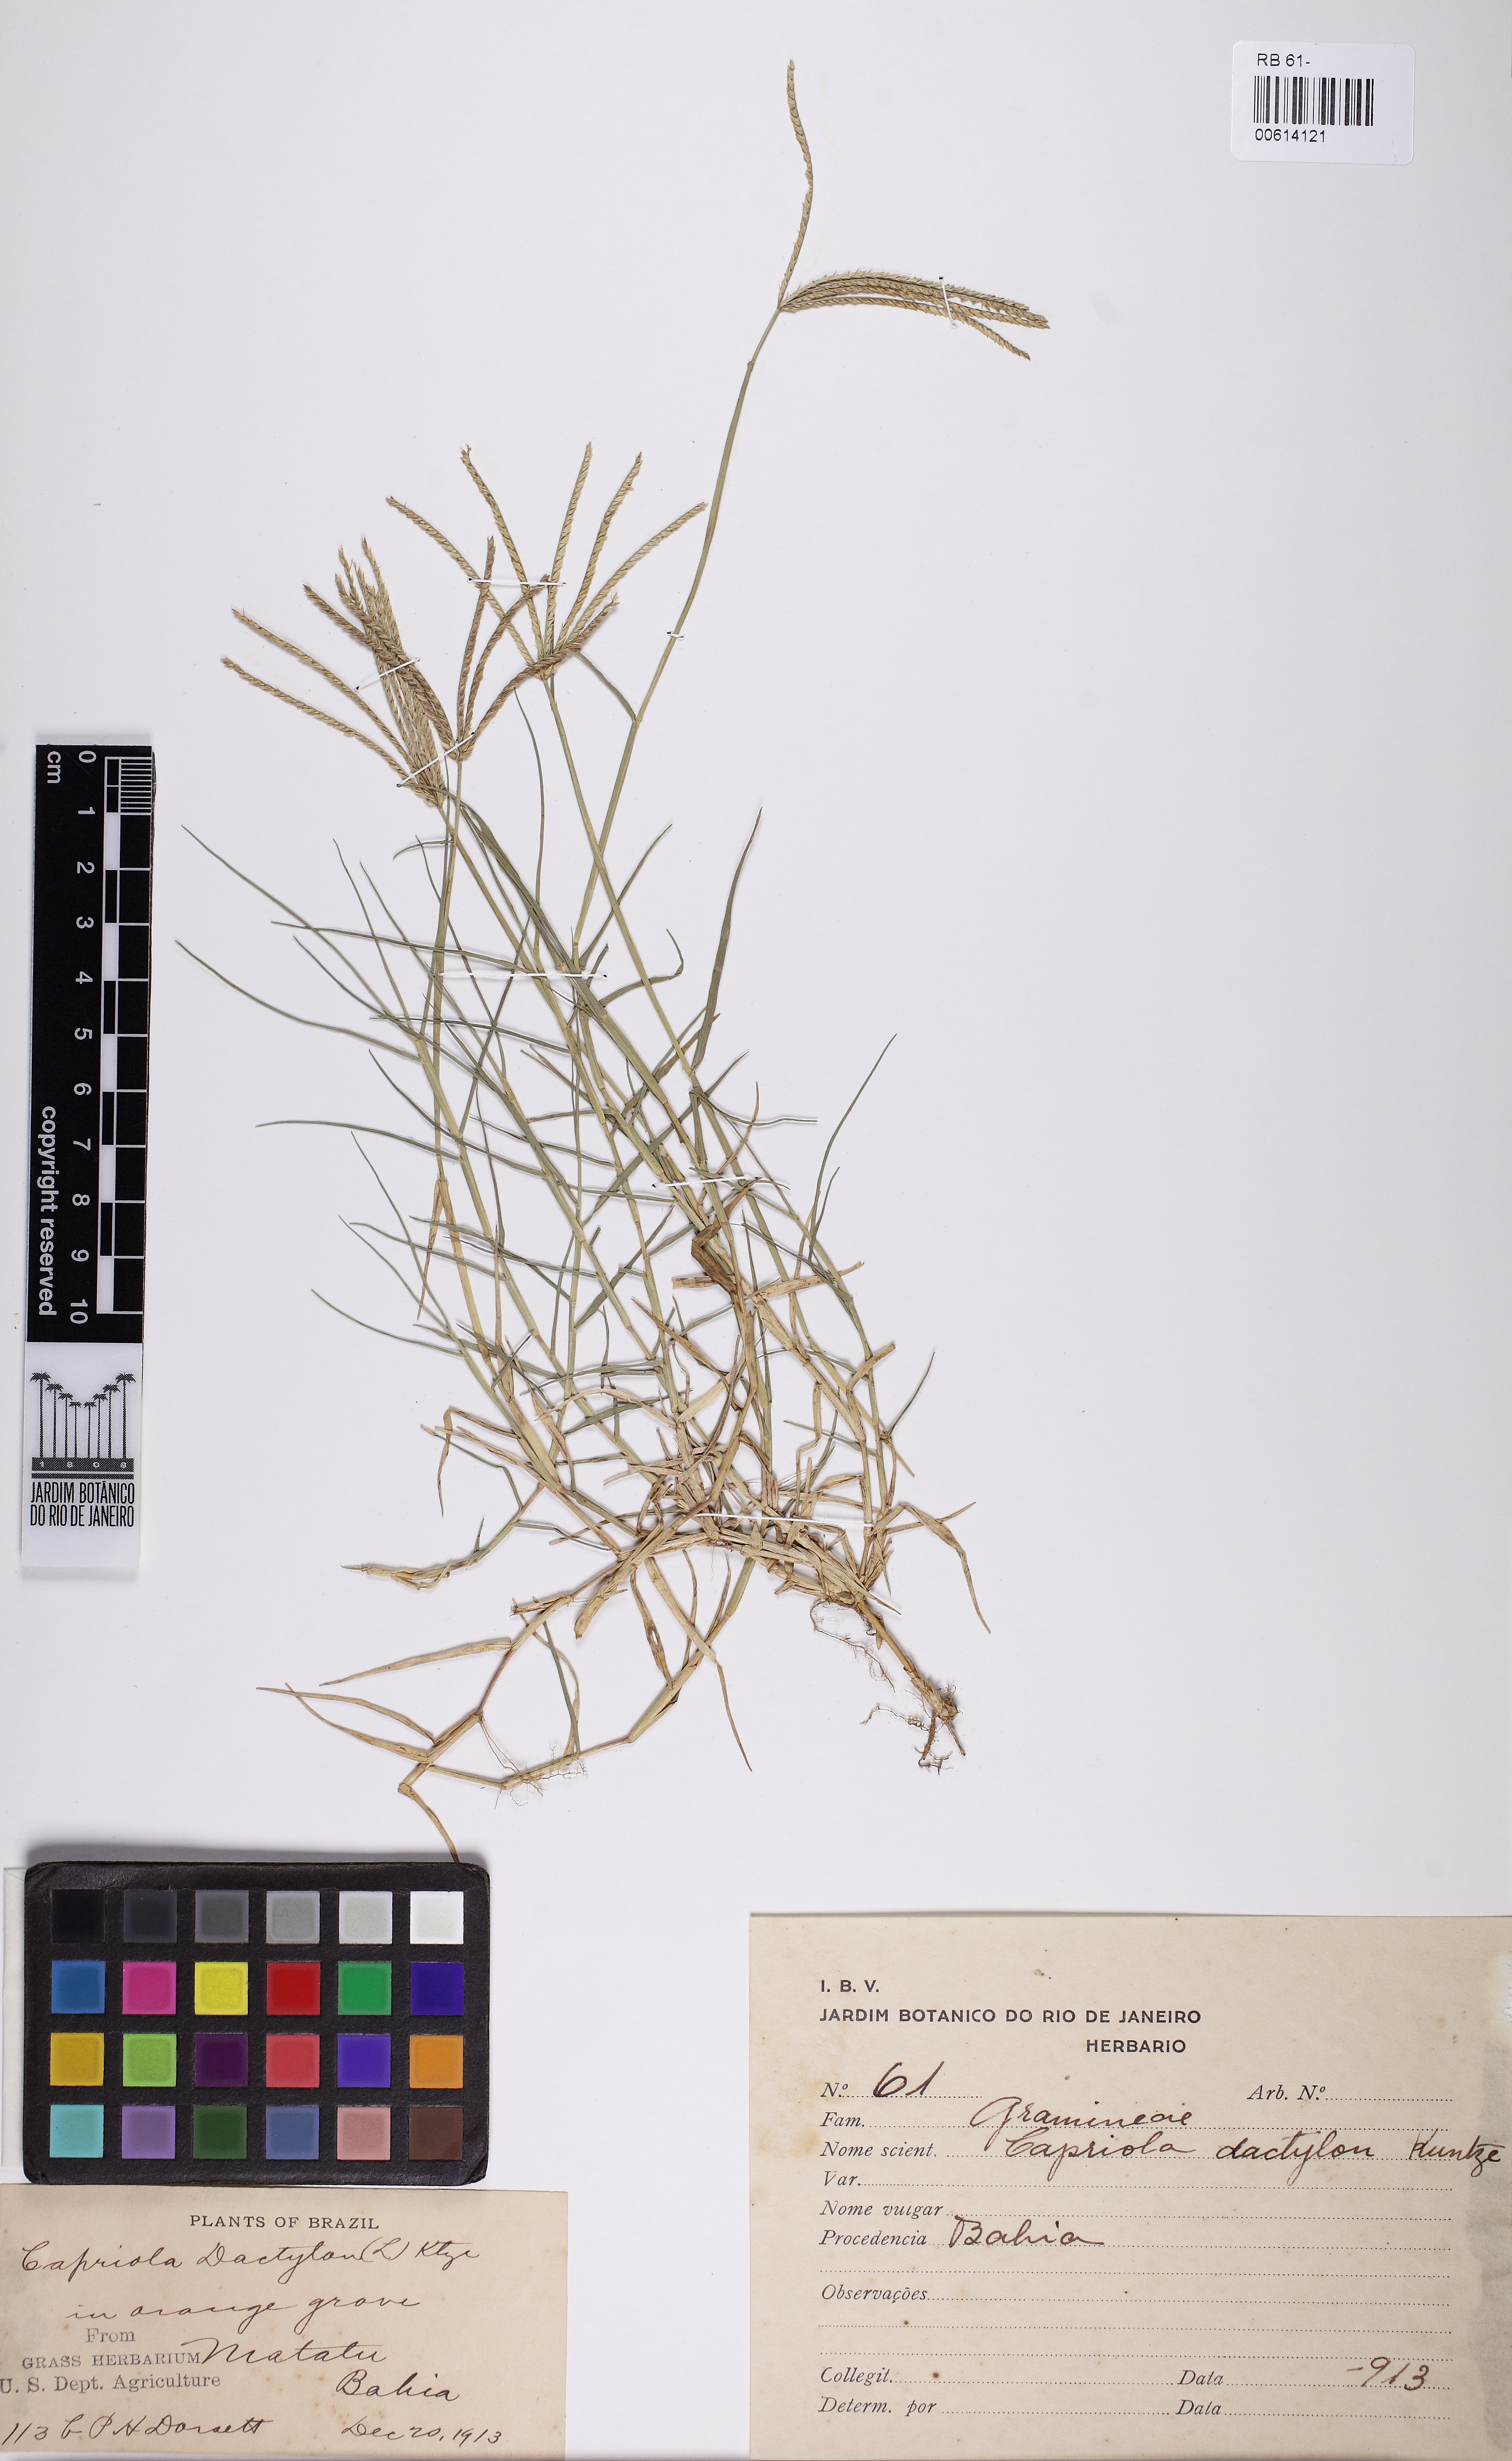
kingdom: Plantae
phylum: Tracheophyta
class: Liliopsida
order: Poales
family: Poaceae
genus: Cynodon
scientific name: Cynodon dactylon
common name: Bermuda grass
